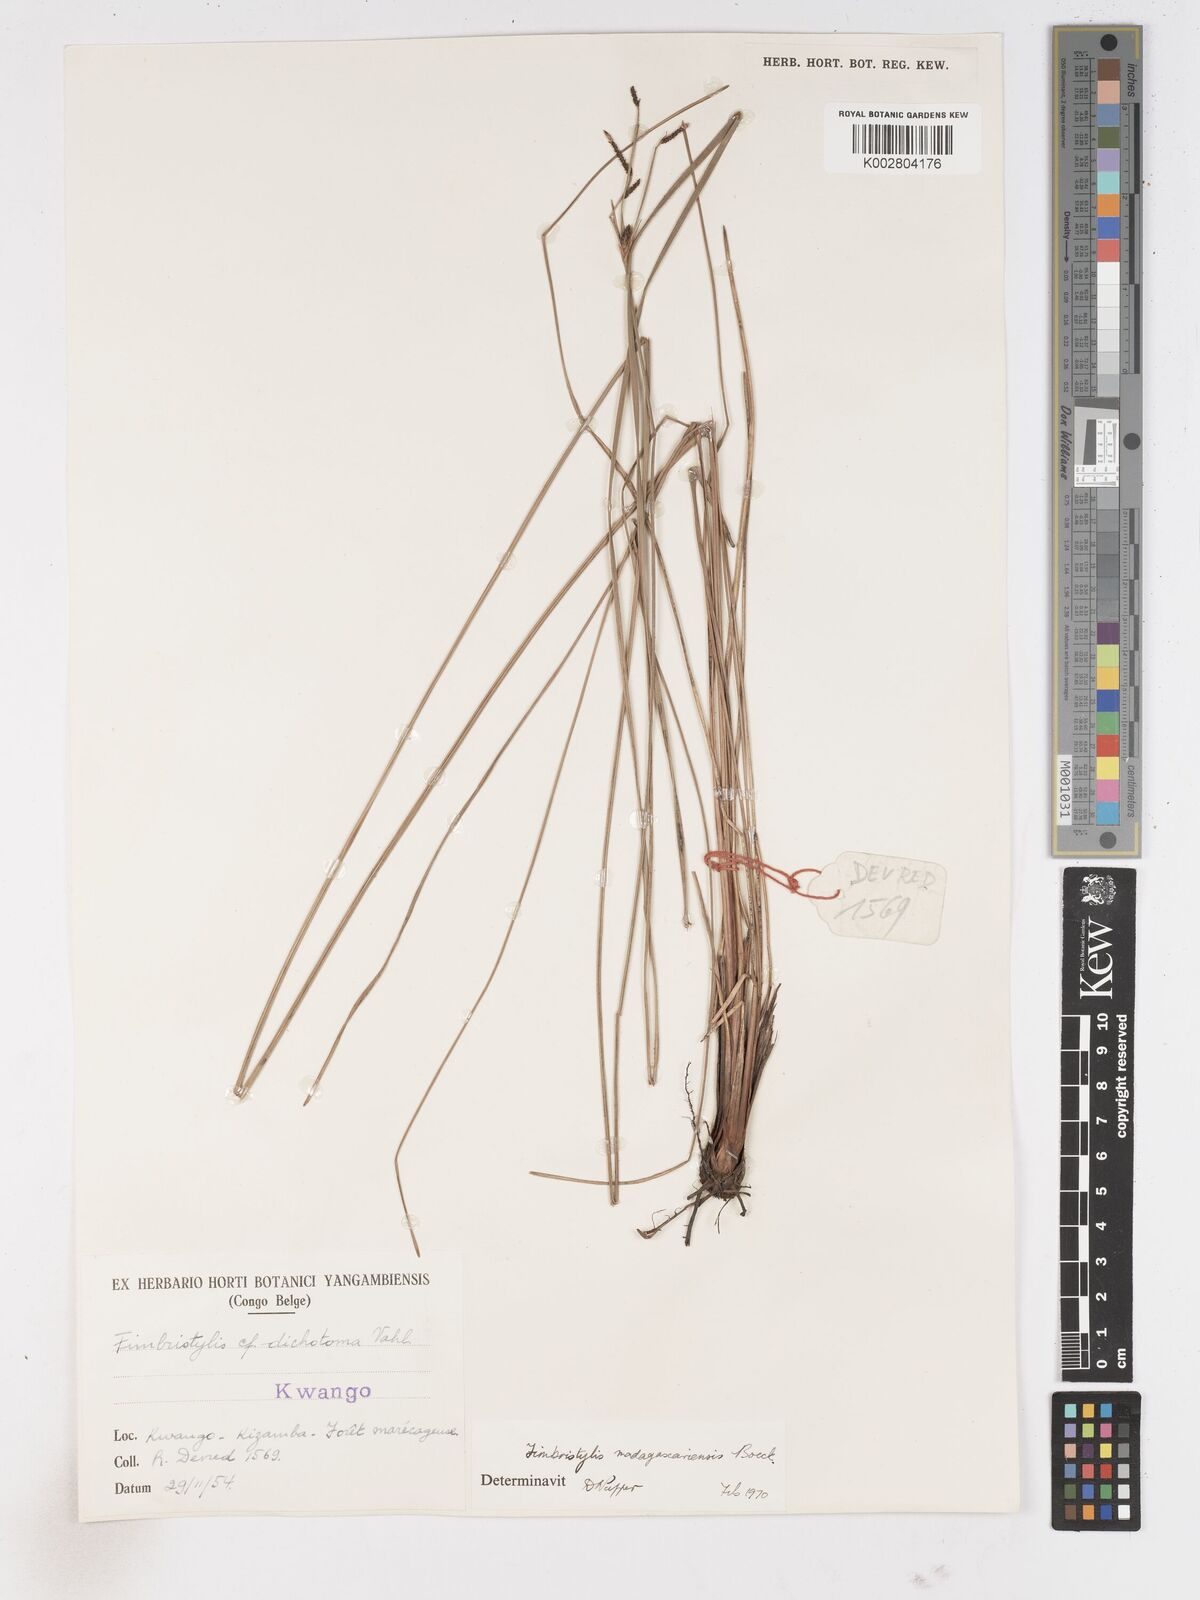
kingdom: Plantae
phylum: Tracheophyta
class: Liliopsida
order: Poales
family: Cyperaceae
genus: Fimbristylis
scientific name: Fimbristylis madagascariensis
